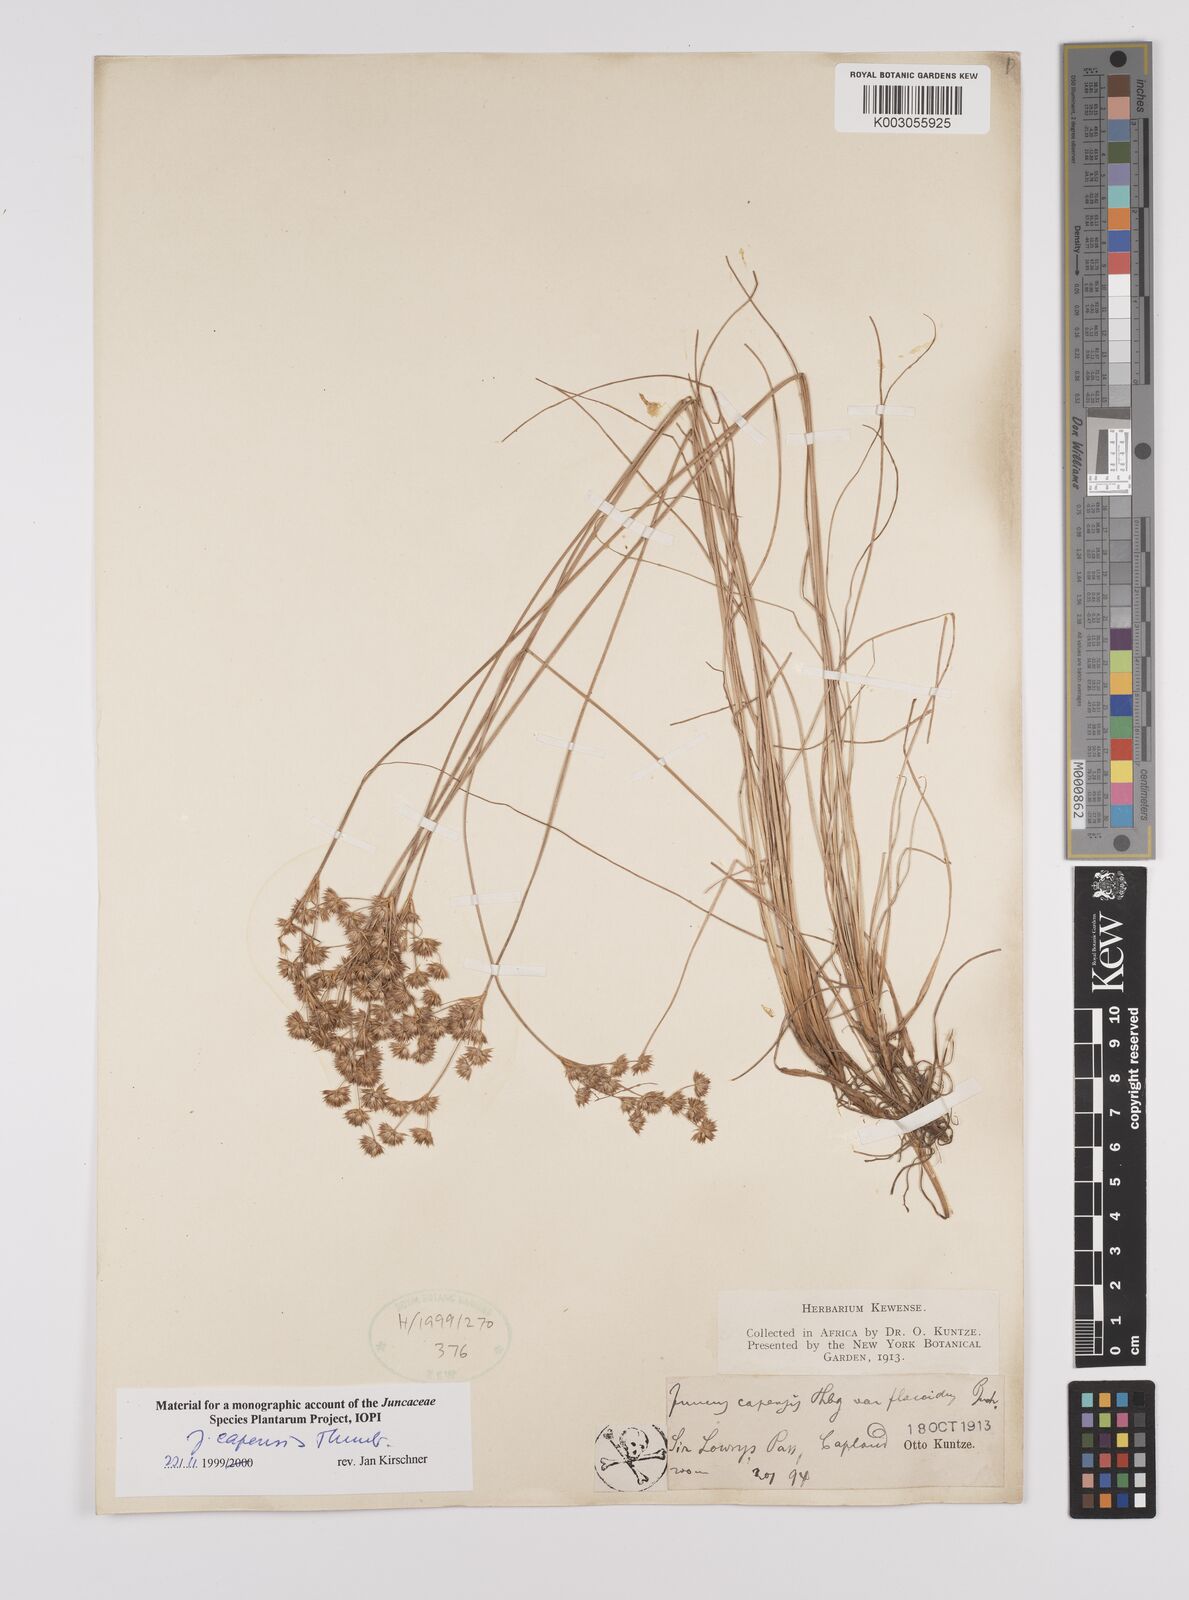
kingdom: Plantae
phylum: Tracheophyta
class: Liliopsida
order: Poales
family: Juncaceae
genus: Juncus
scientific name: Juncus capensis
